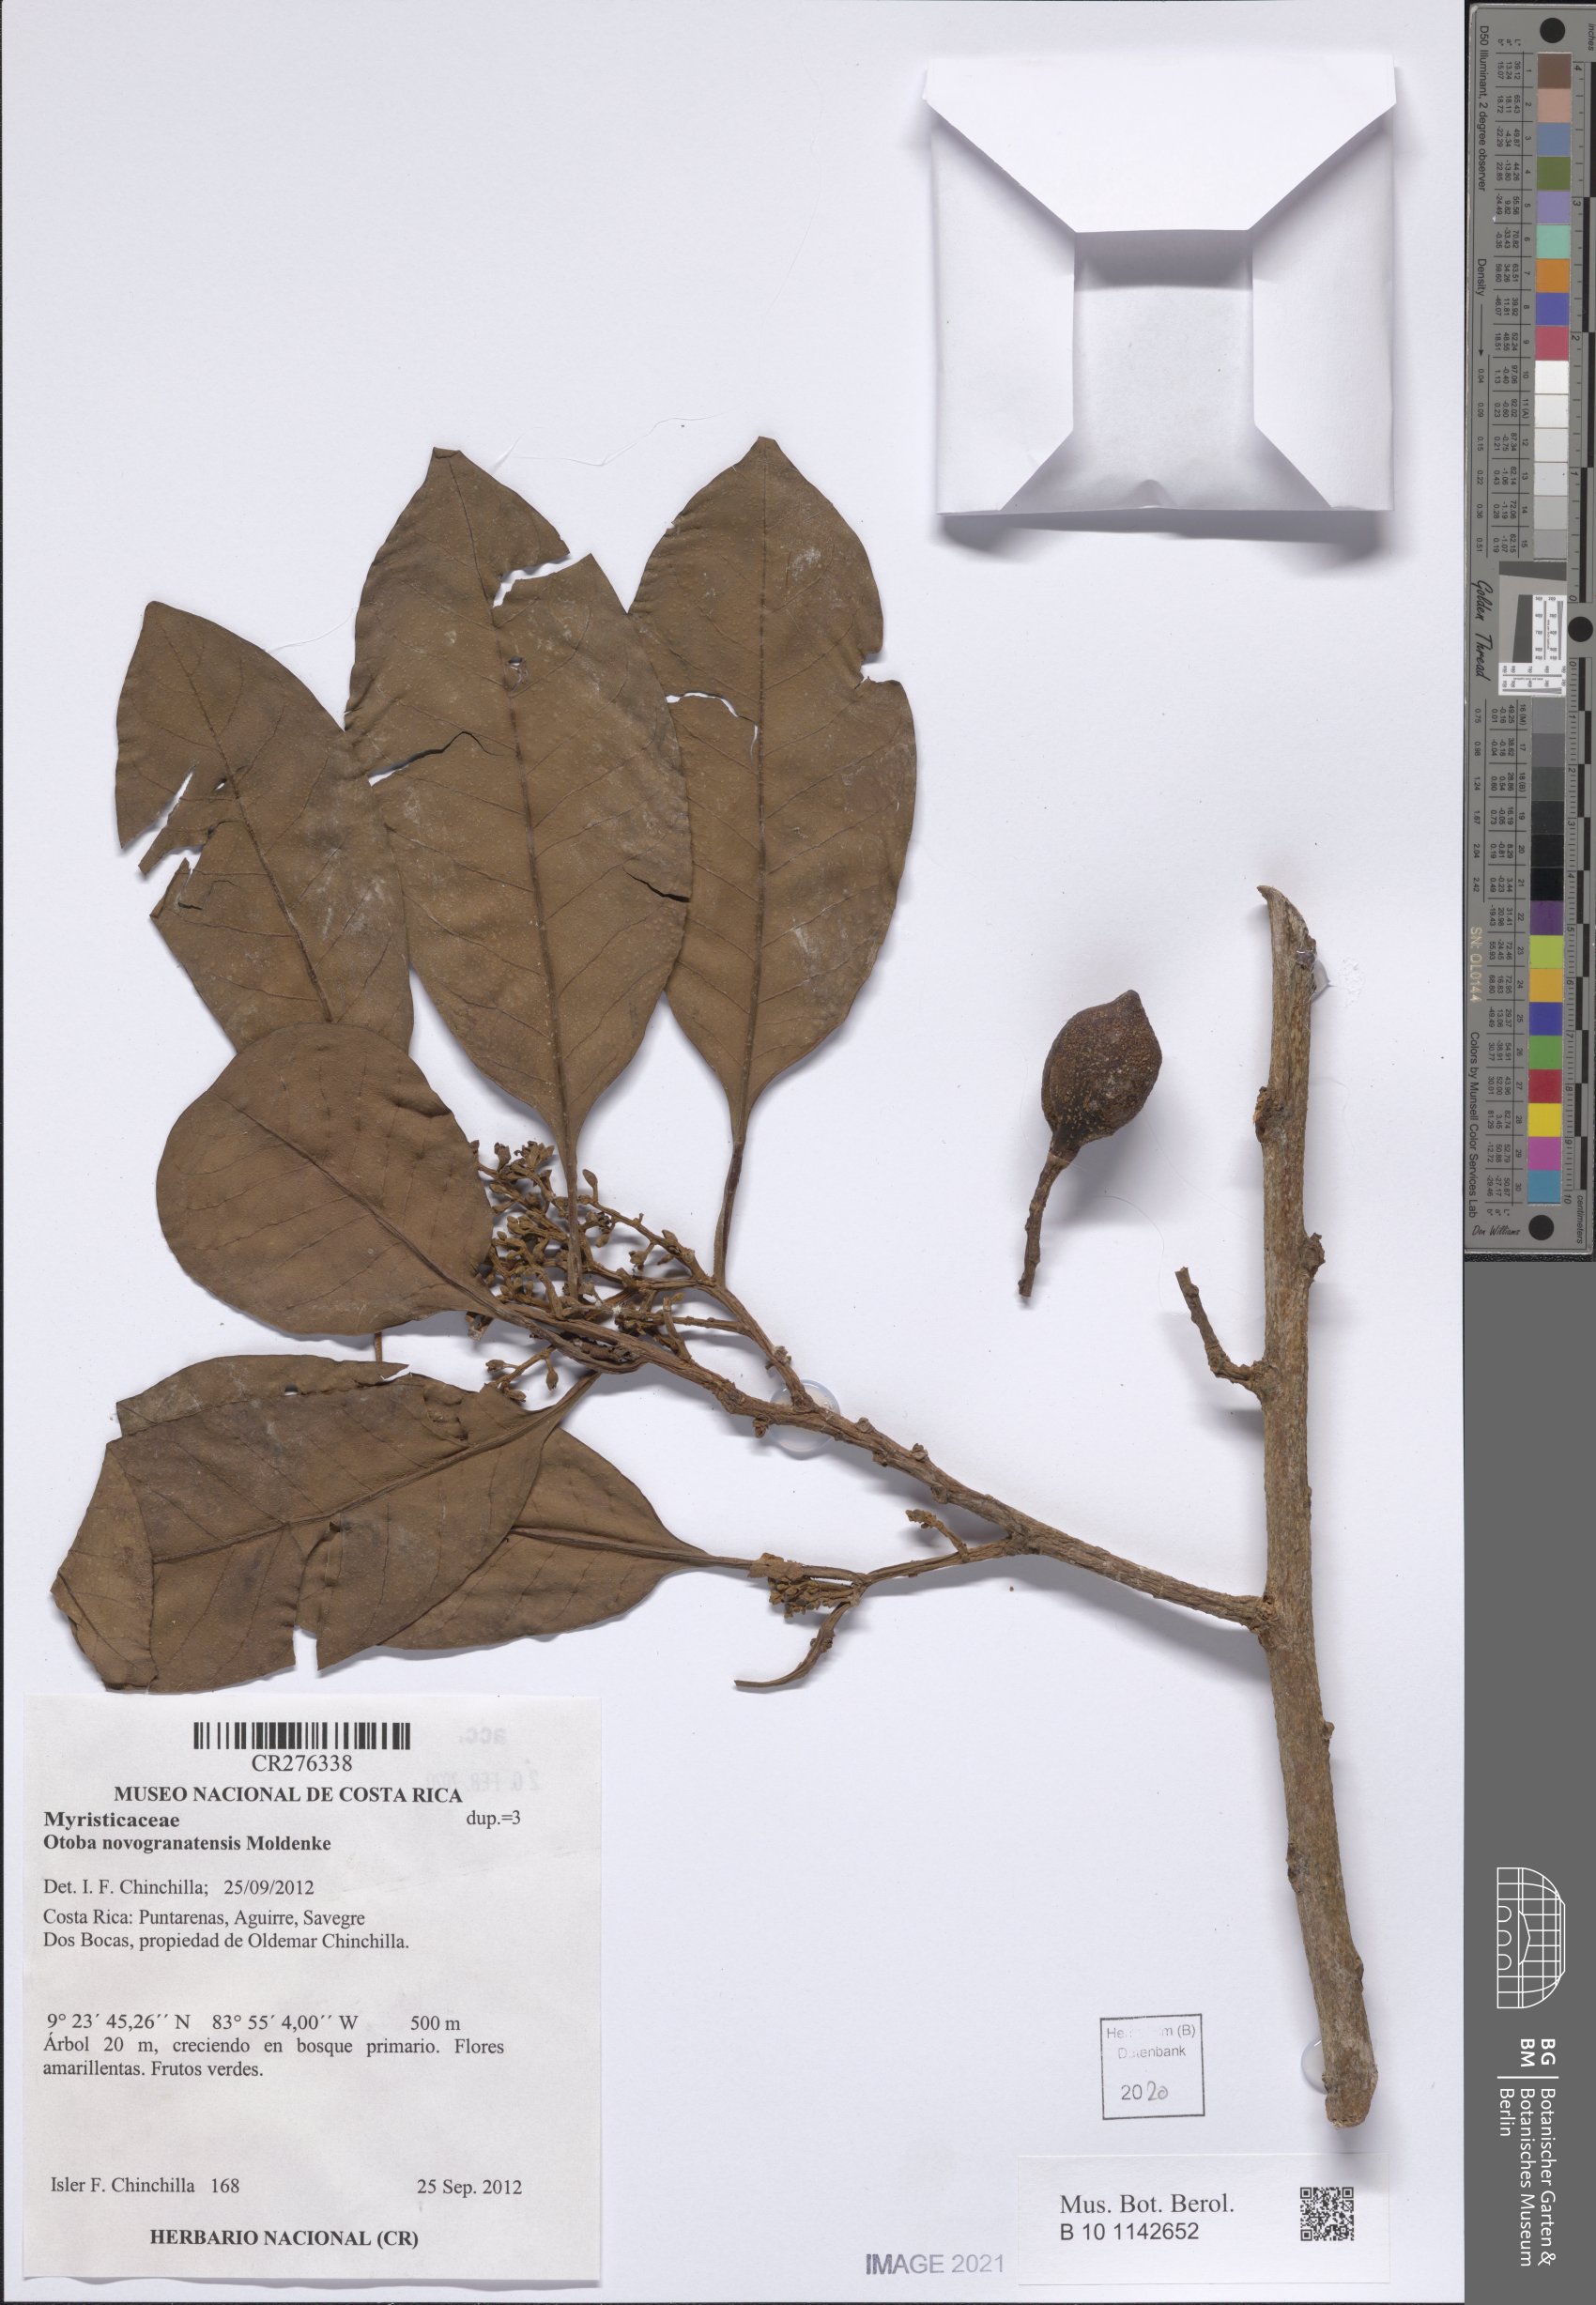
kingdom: Plantae
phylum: Tracheophyta
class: Magnoliopsida
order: Magnoliales
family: Myristicaceae
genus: Otoba
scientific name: Otoba novogranatensis
